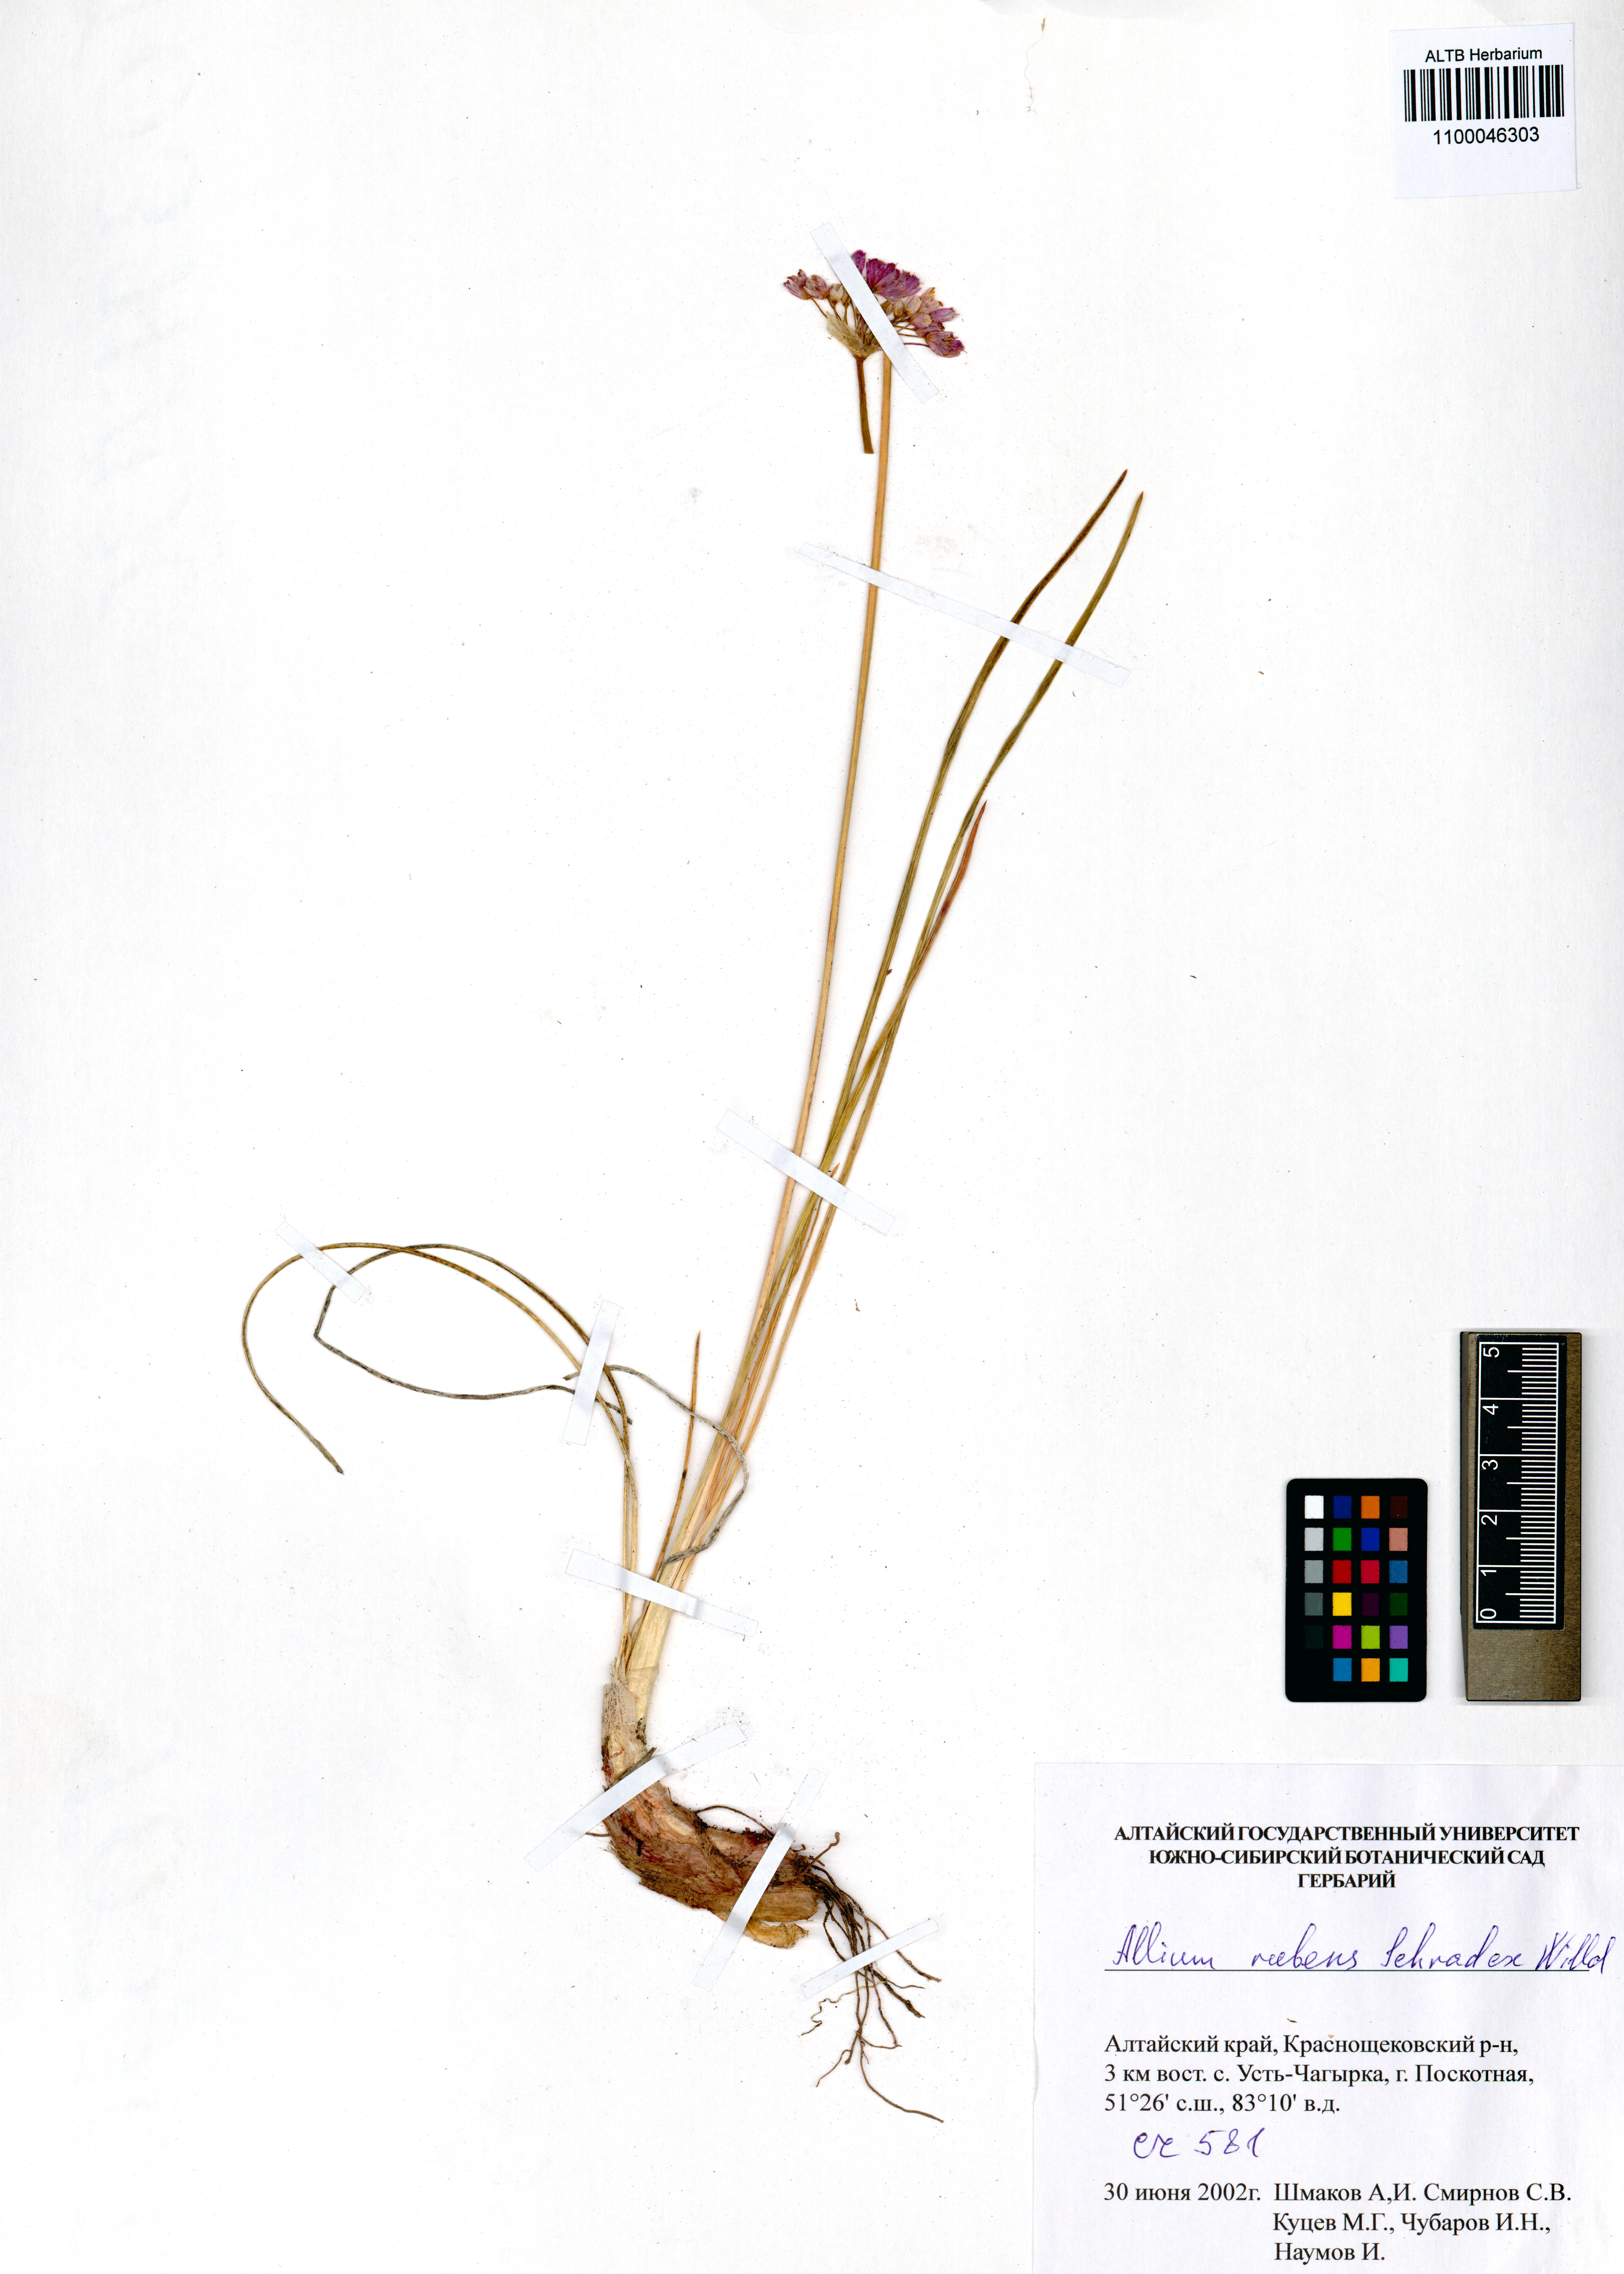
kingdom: Plantae
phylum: Tracheophyta
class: Liliopsida
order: Asparagales
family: Amaryllidaceae
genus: Allium
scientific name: Allium rubens
